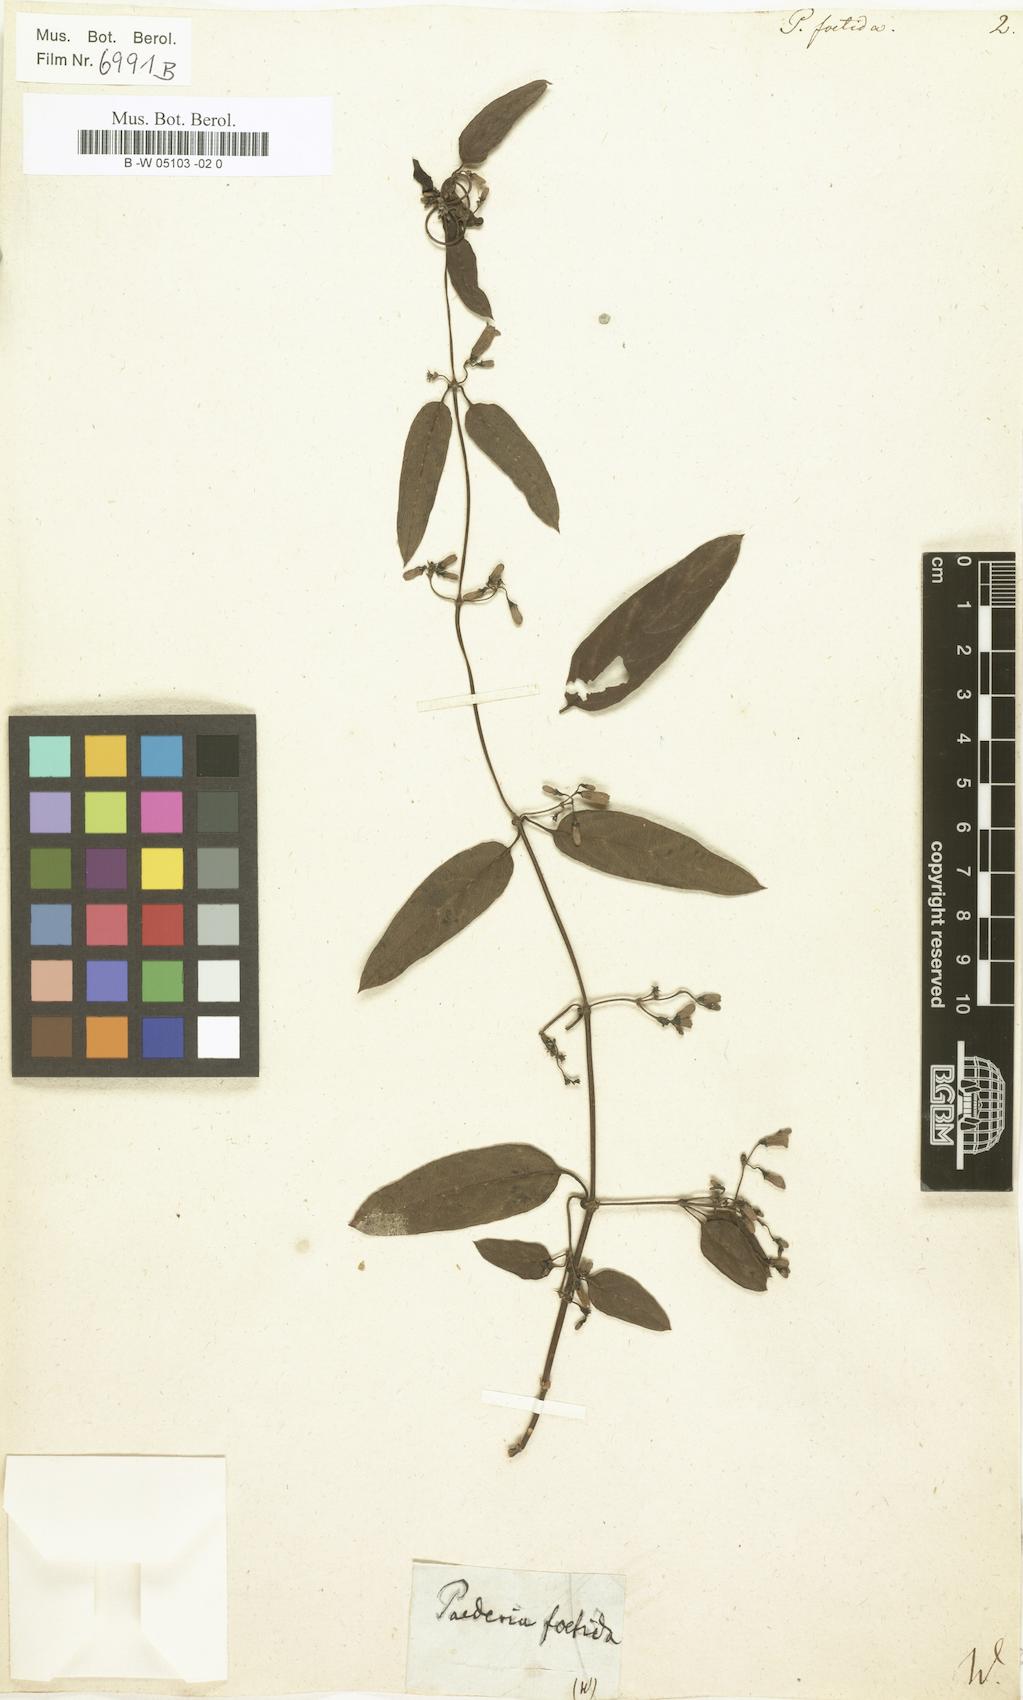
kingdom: Plantae
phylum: Tracheophyta
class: Magnoliopsida
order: Gentianales
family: Rubiaceae
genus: Paederia
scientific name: Paederia foetida
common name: Stinkvine
